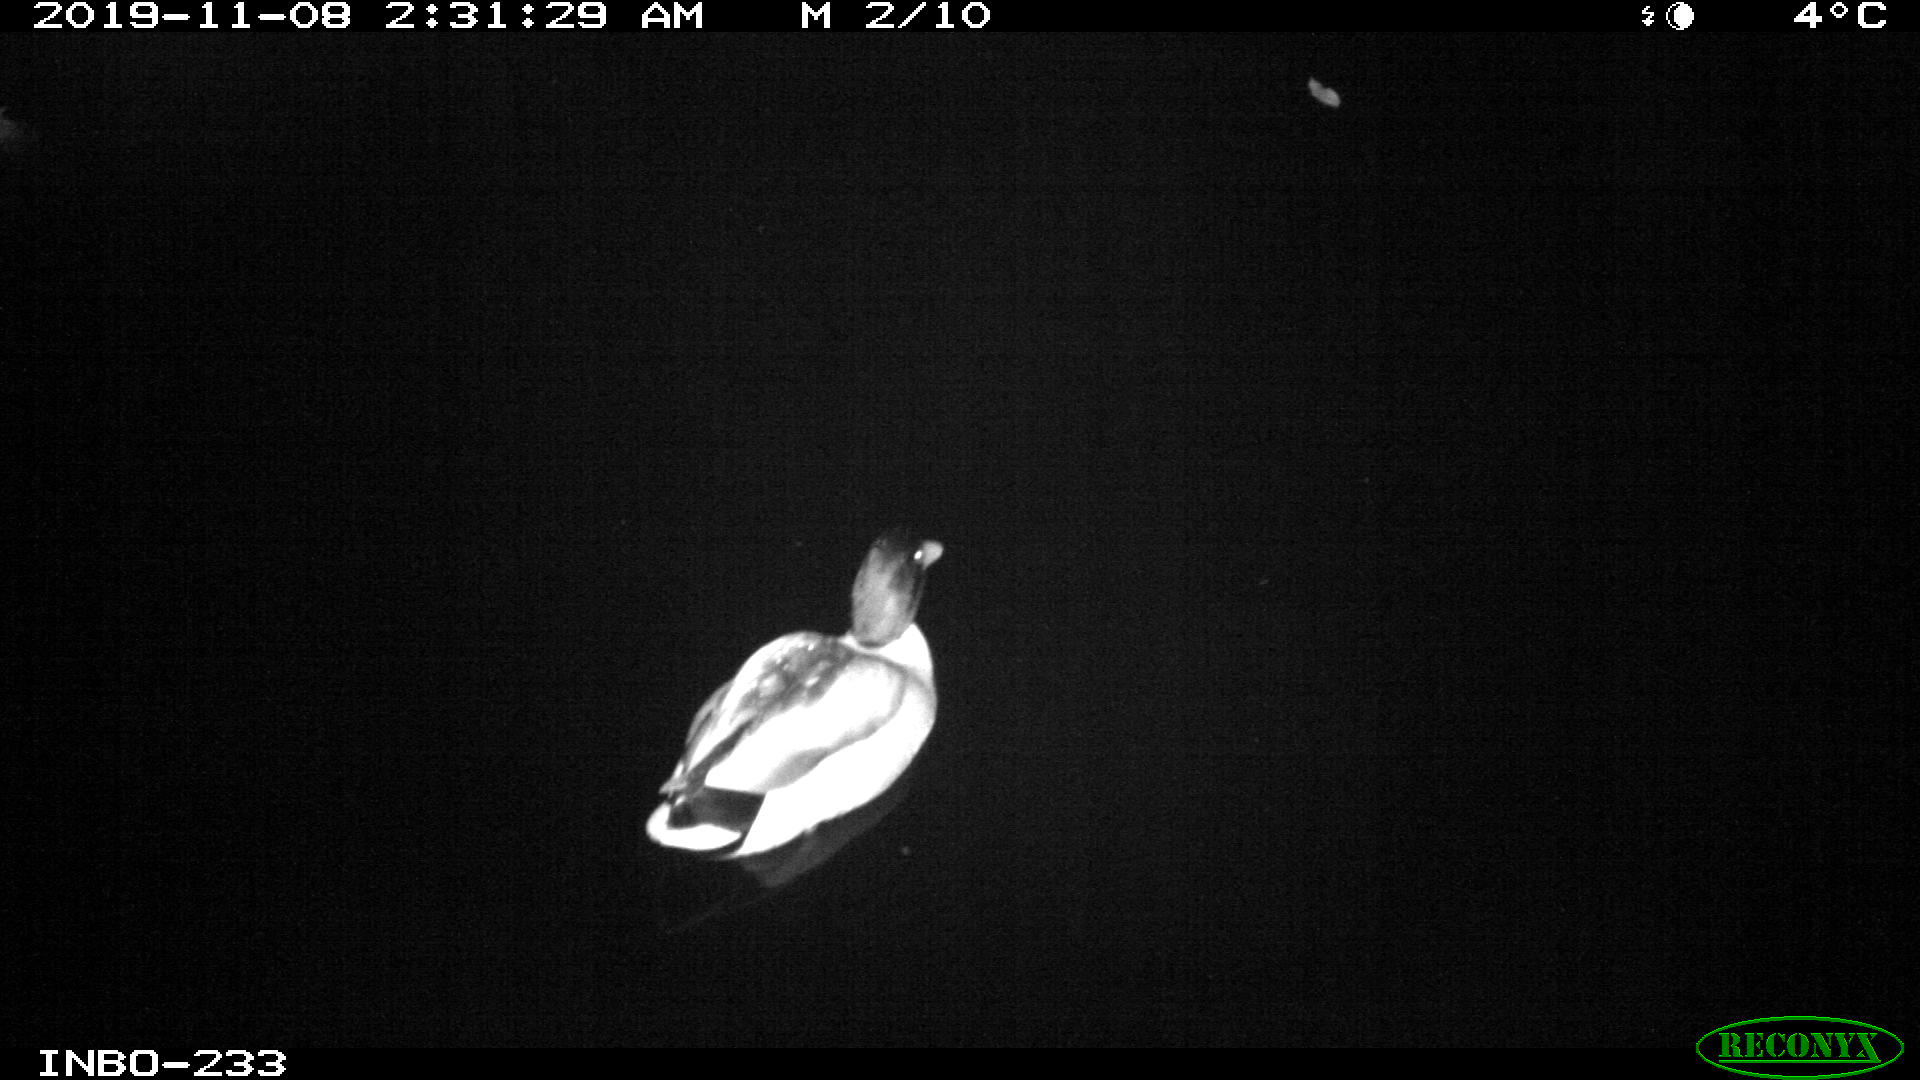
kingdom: Animalia
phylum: Chordata
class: Aves
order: Anseriformes
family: Anatidae
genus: Anas
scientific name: Anas platyrhynchos
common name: Mallard
